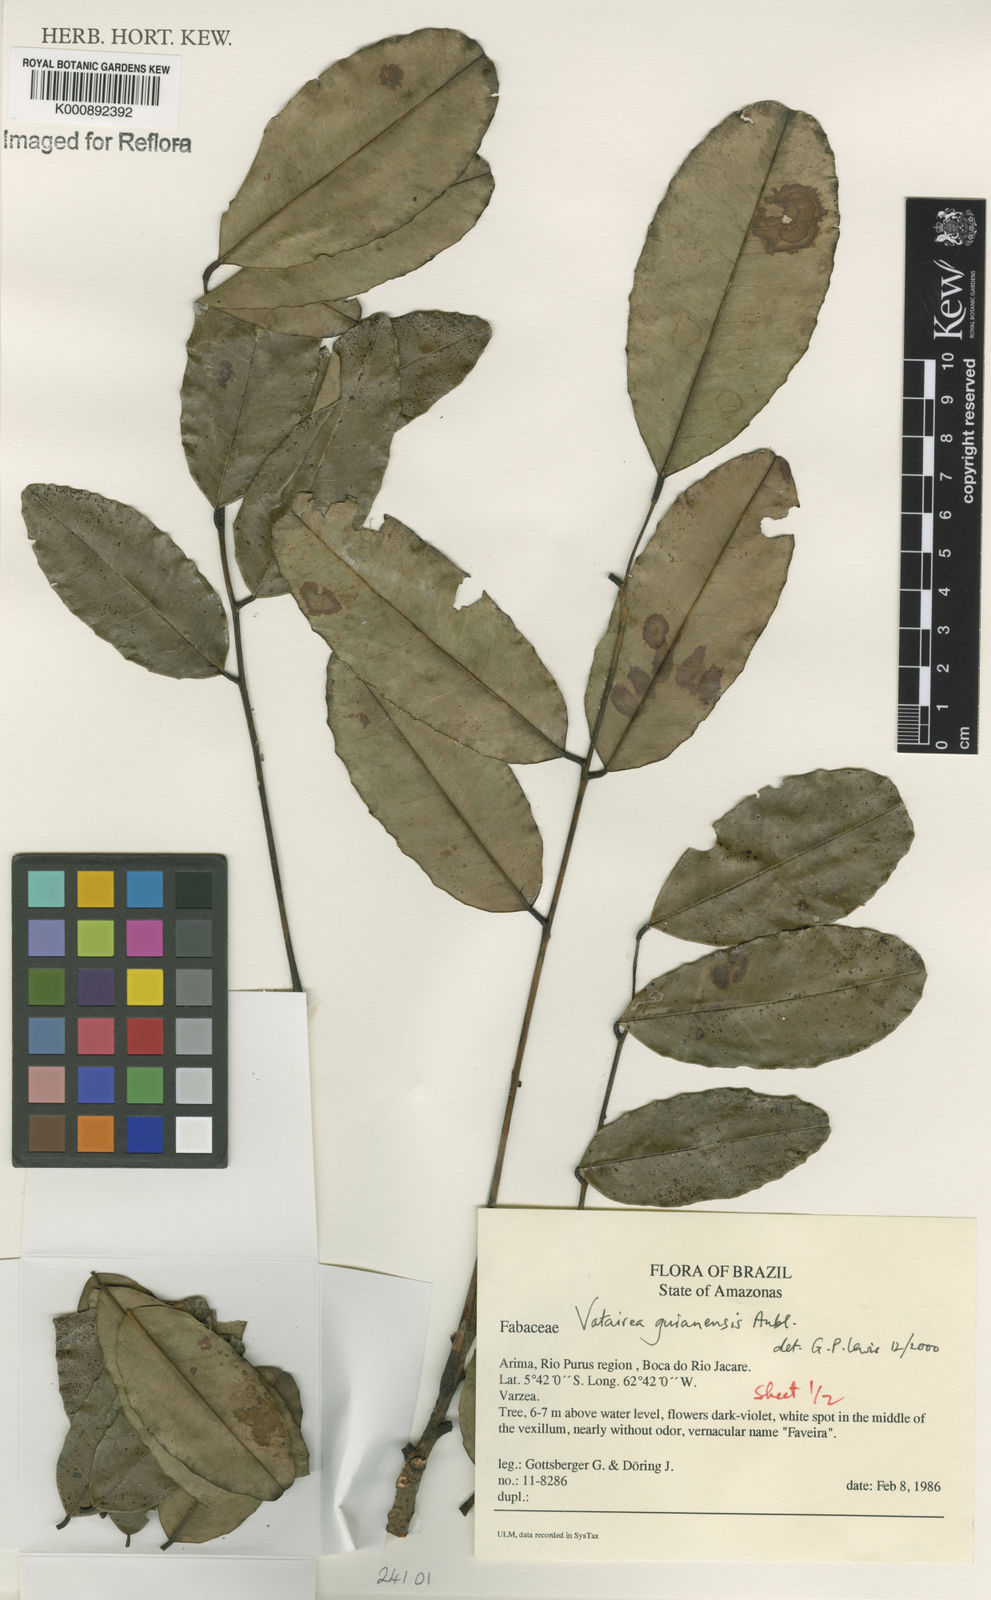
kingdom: Plantae
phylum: Tracheophyta
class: Magnoliopsida
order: Fabales
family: Fabaceae
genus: Vatairea
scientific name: Vatairea guianensis
